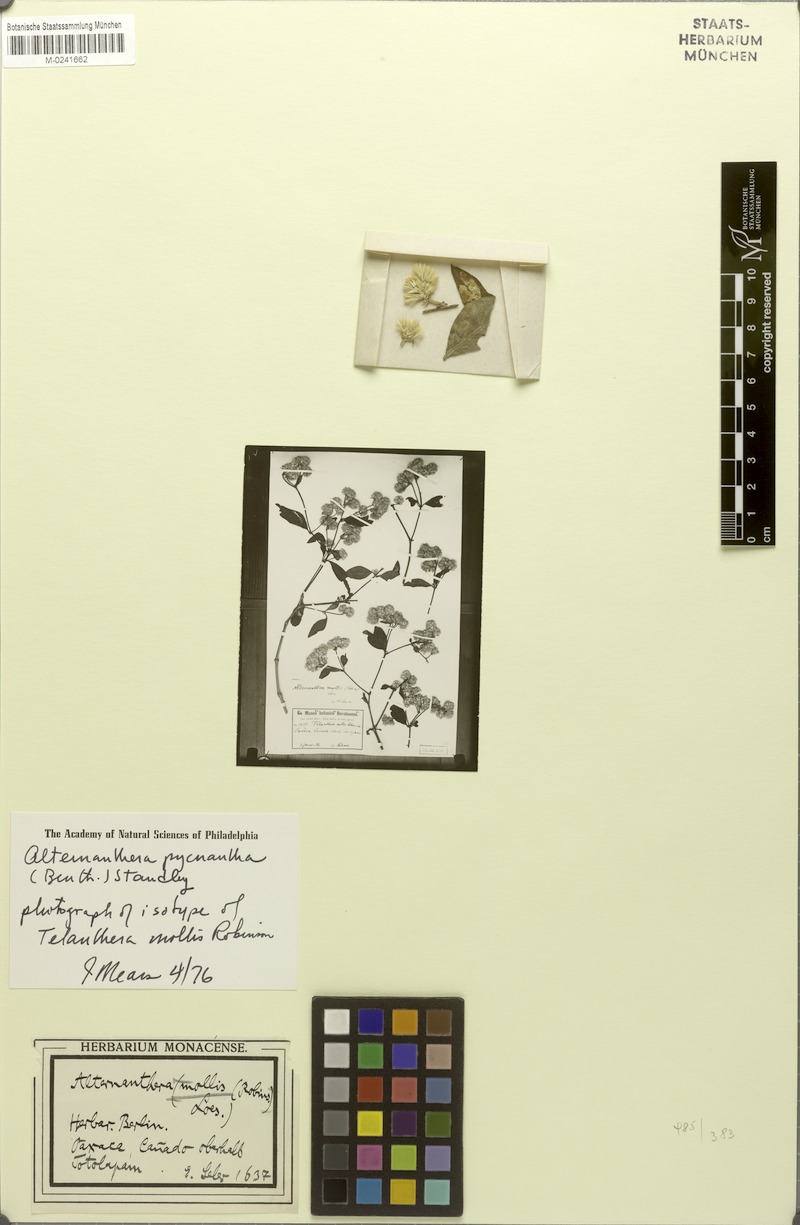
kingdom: Plantae
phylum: Tracheophyta
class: Magnoliopsida
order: Caryophyllales
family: Amaranthaceae
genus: Alternanthera
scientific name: Alternanthera pycnantha
